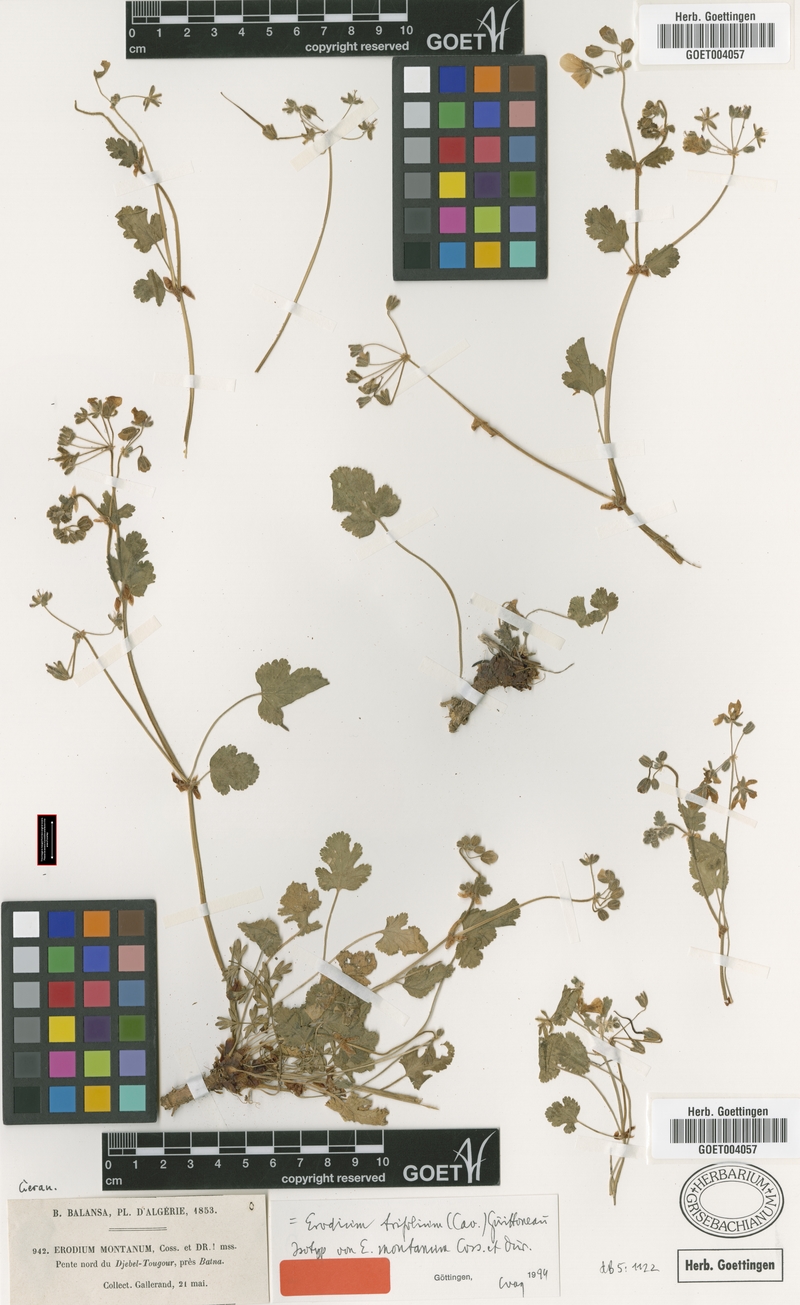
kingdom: Plantae
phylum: Tracheophyta
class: Magnoliopsida
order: Geraniales
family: Geraniaceae
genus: Erodium
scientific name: Erodium trifolium
